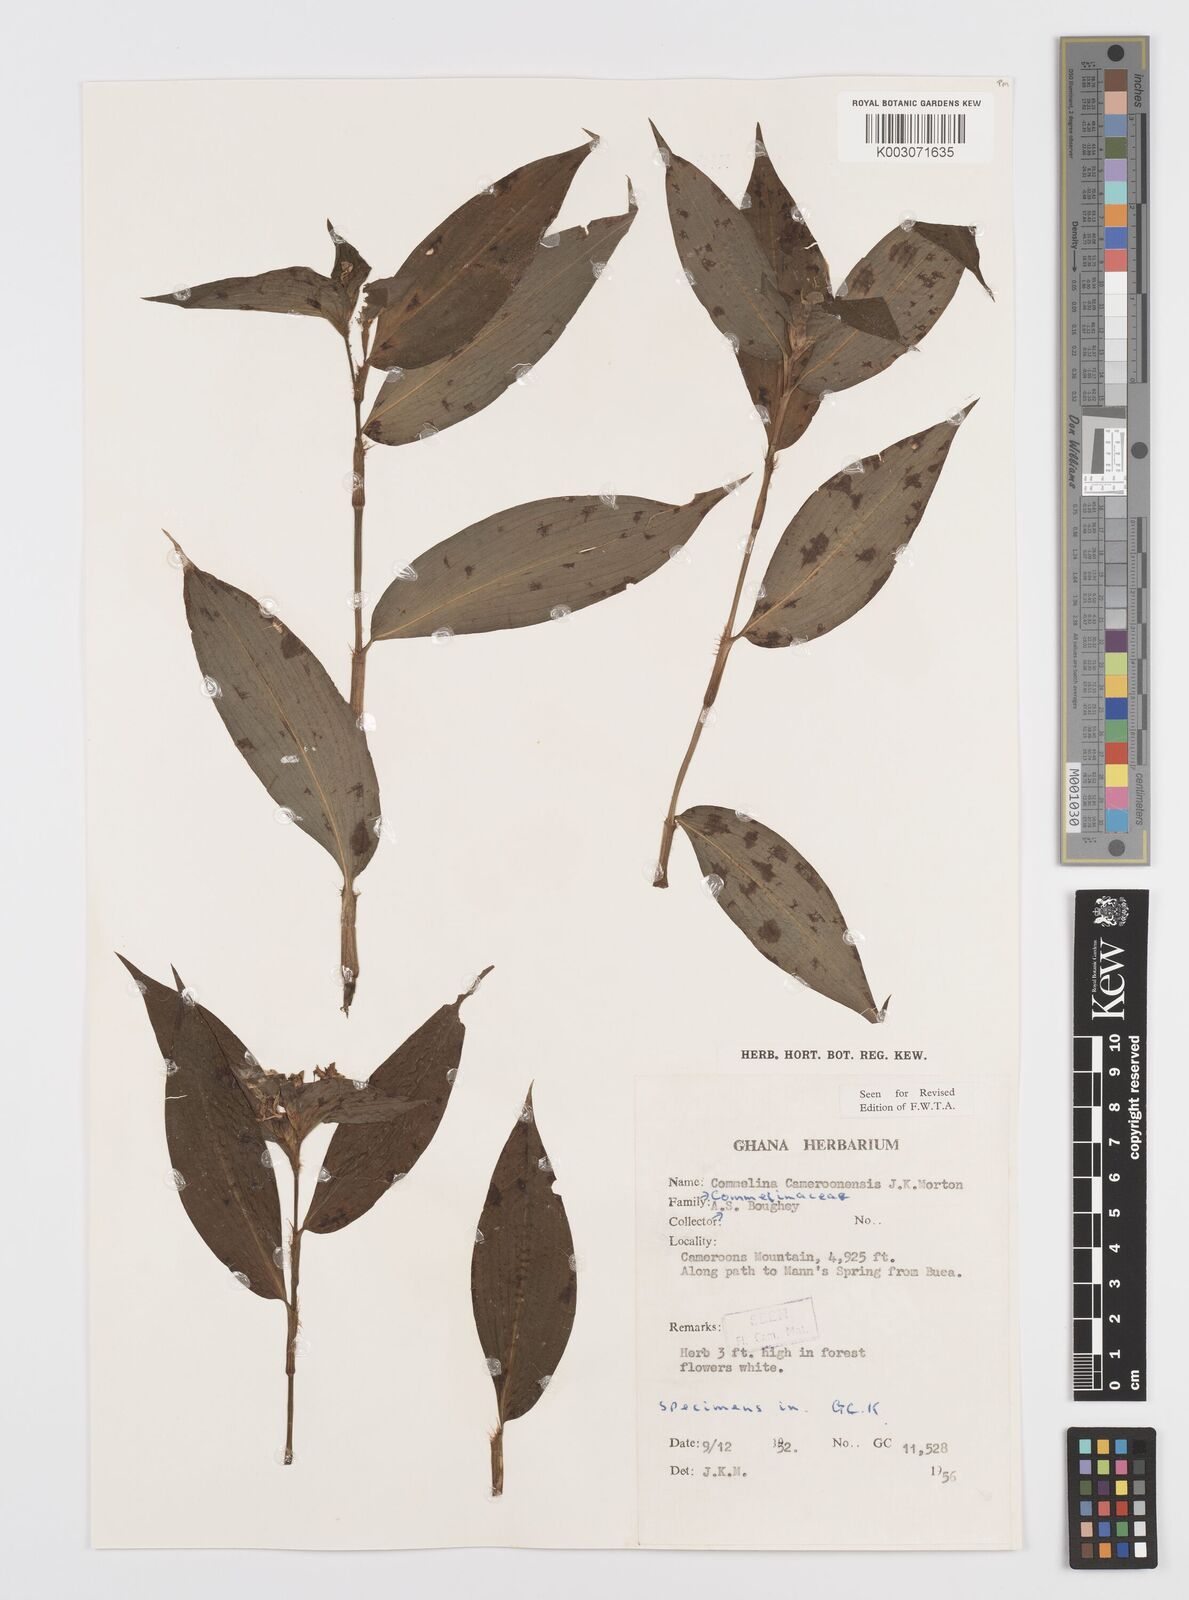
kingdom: Plantae
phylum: Tracheophyta
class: Liliopsida
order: Commelinales
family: Commelinaceae
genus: Commelina
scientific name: Commelina cameroonensis
